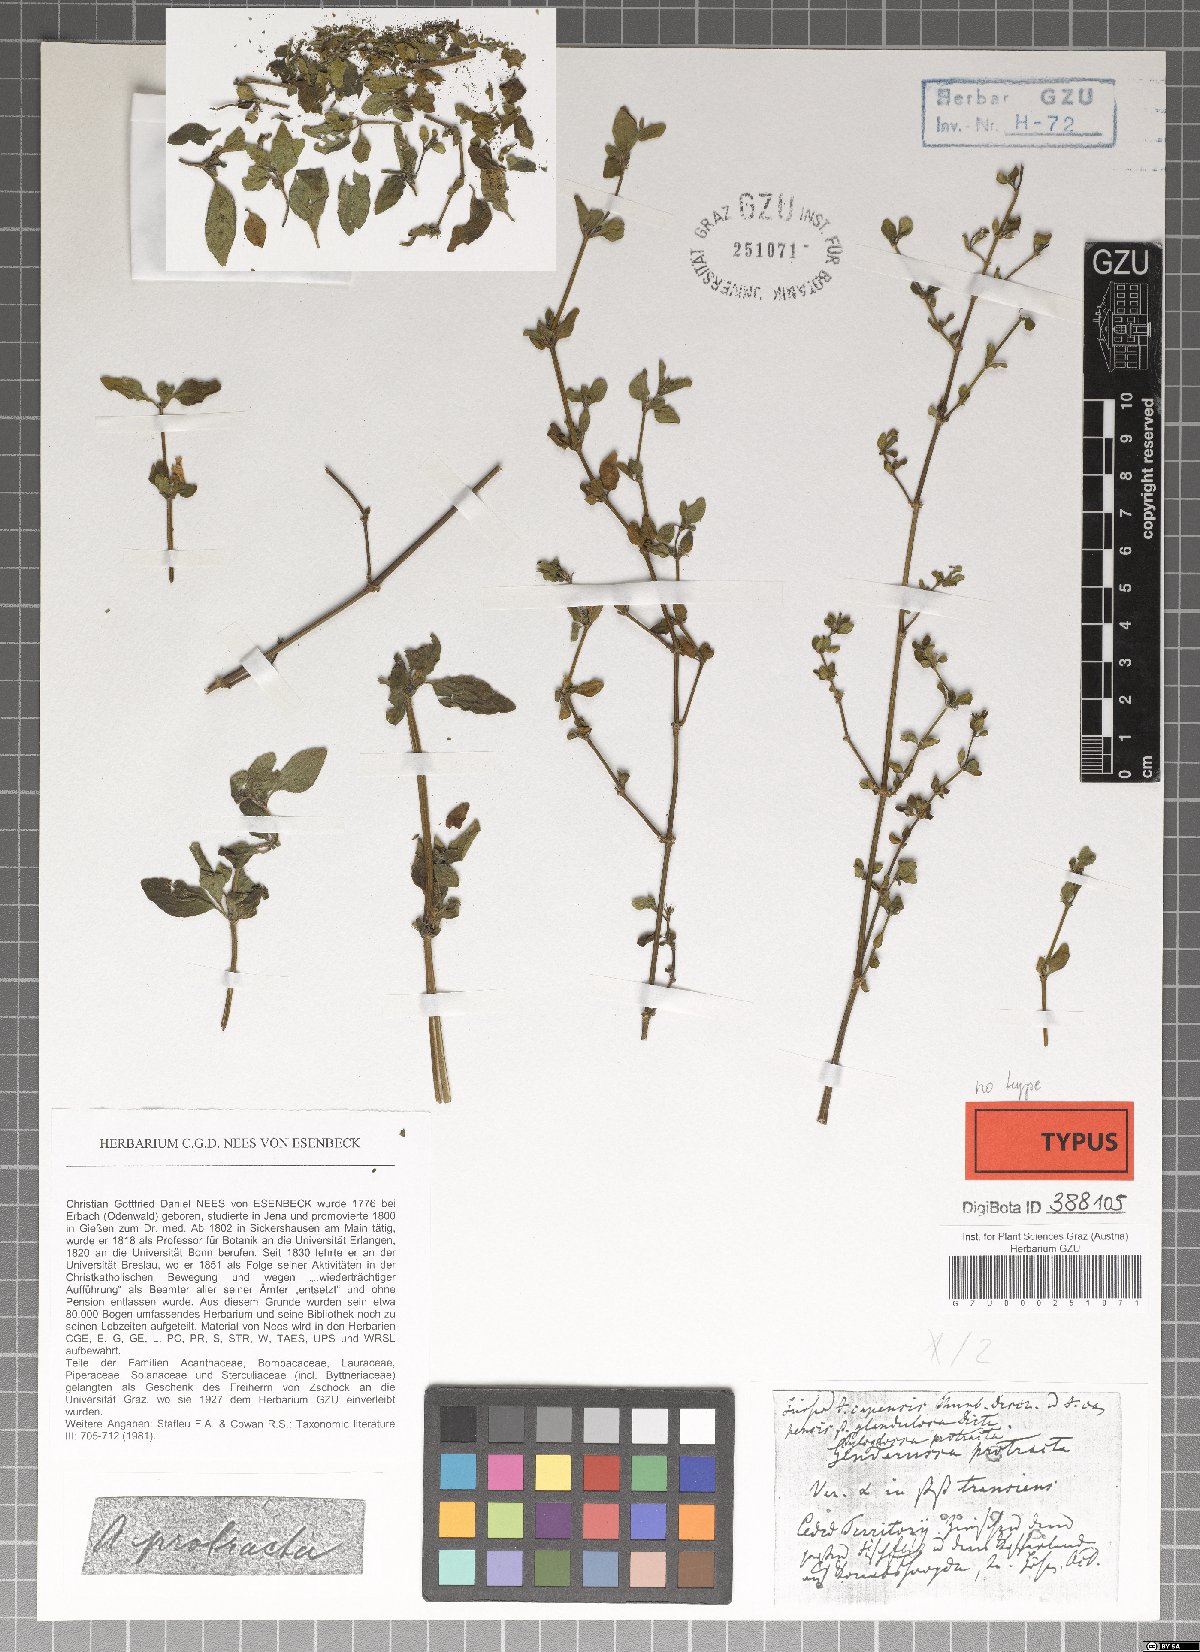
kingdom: Plantae
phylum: Tracheophyta
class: Magnoliopsida
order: Lamiales
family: Acanthaceae
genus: Justicia
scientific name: Justicia protracta
